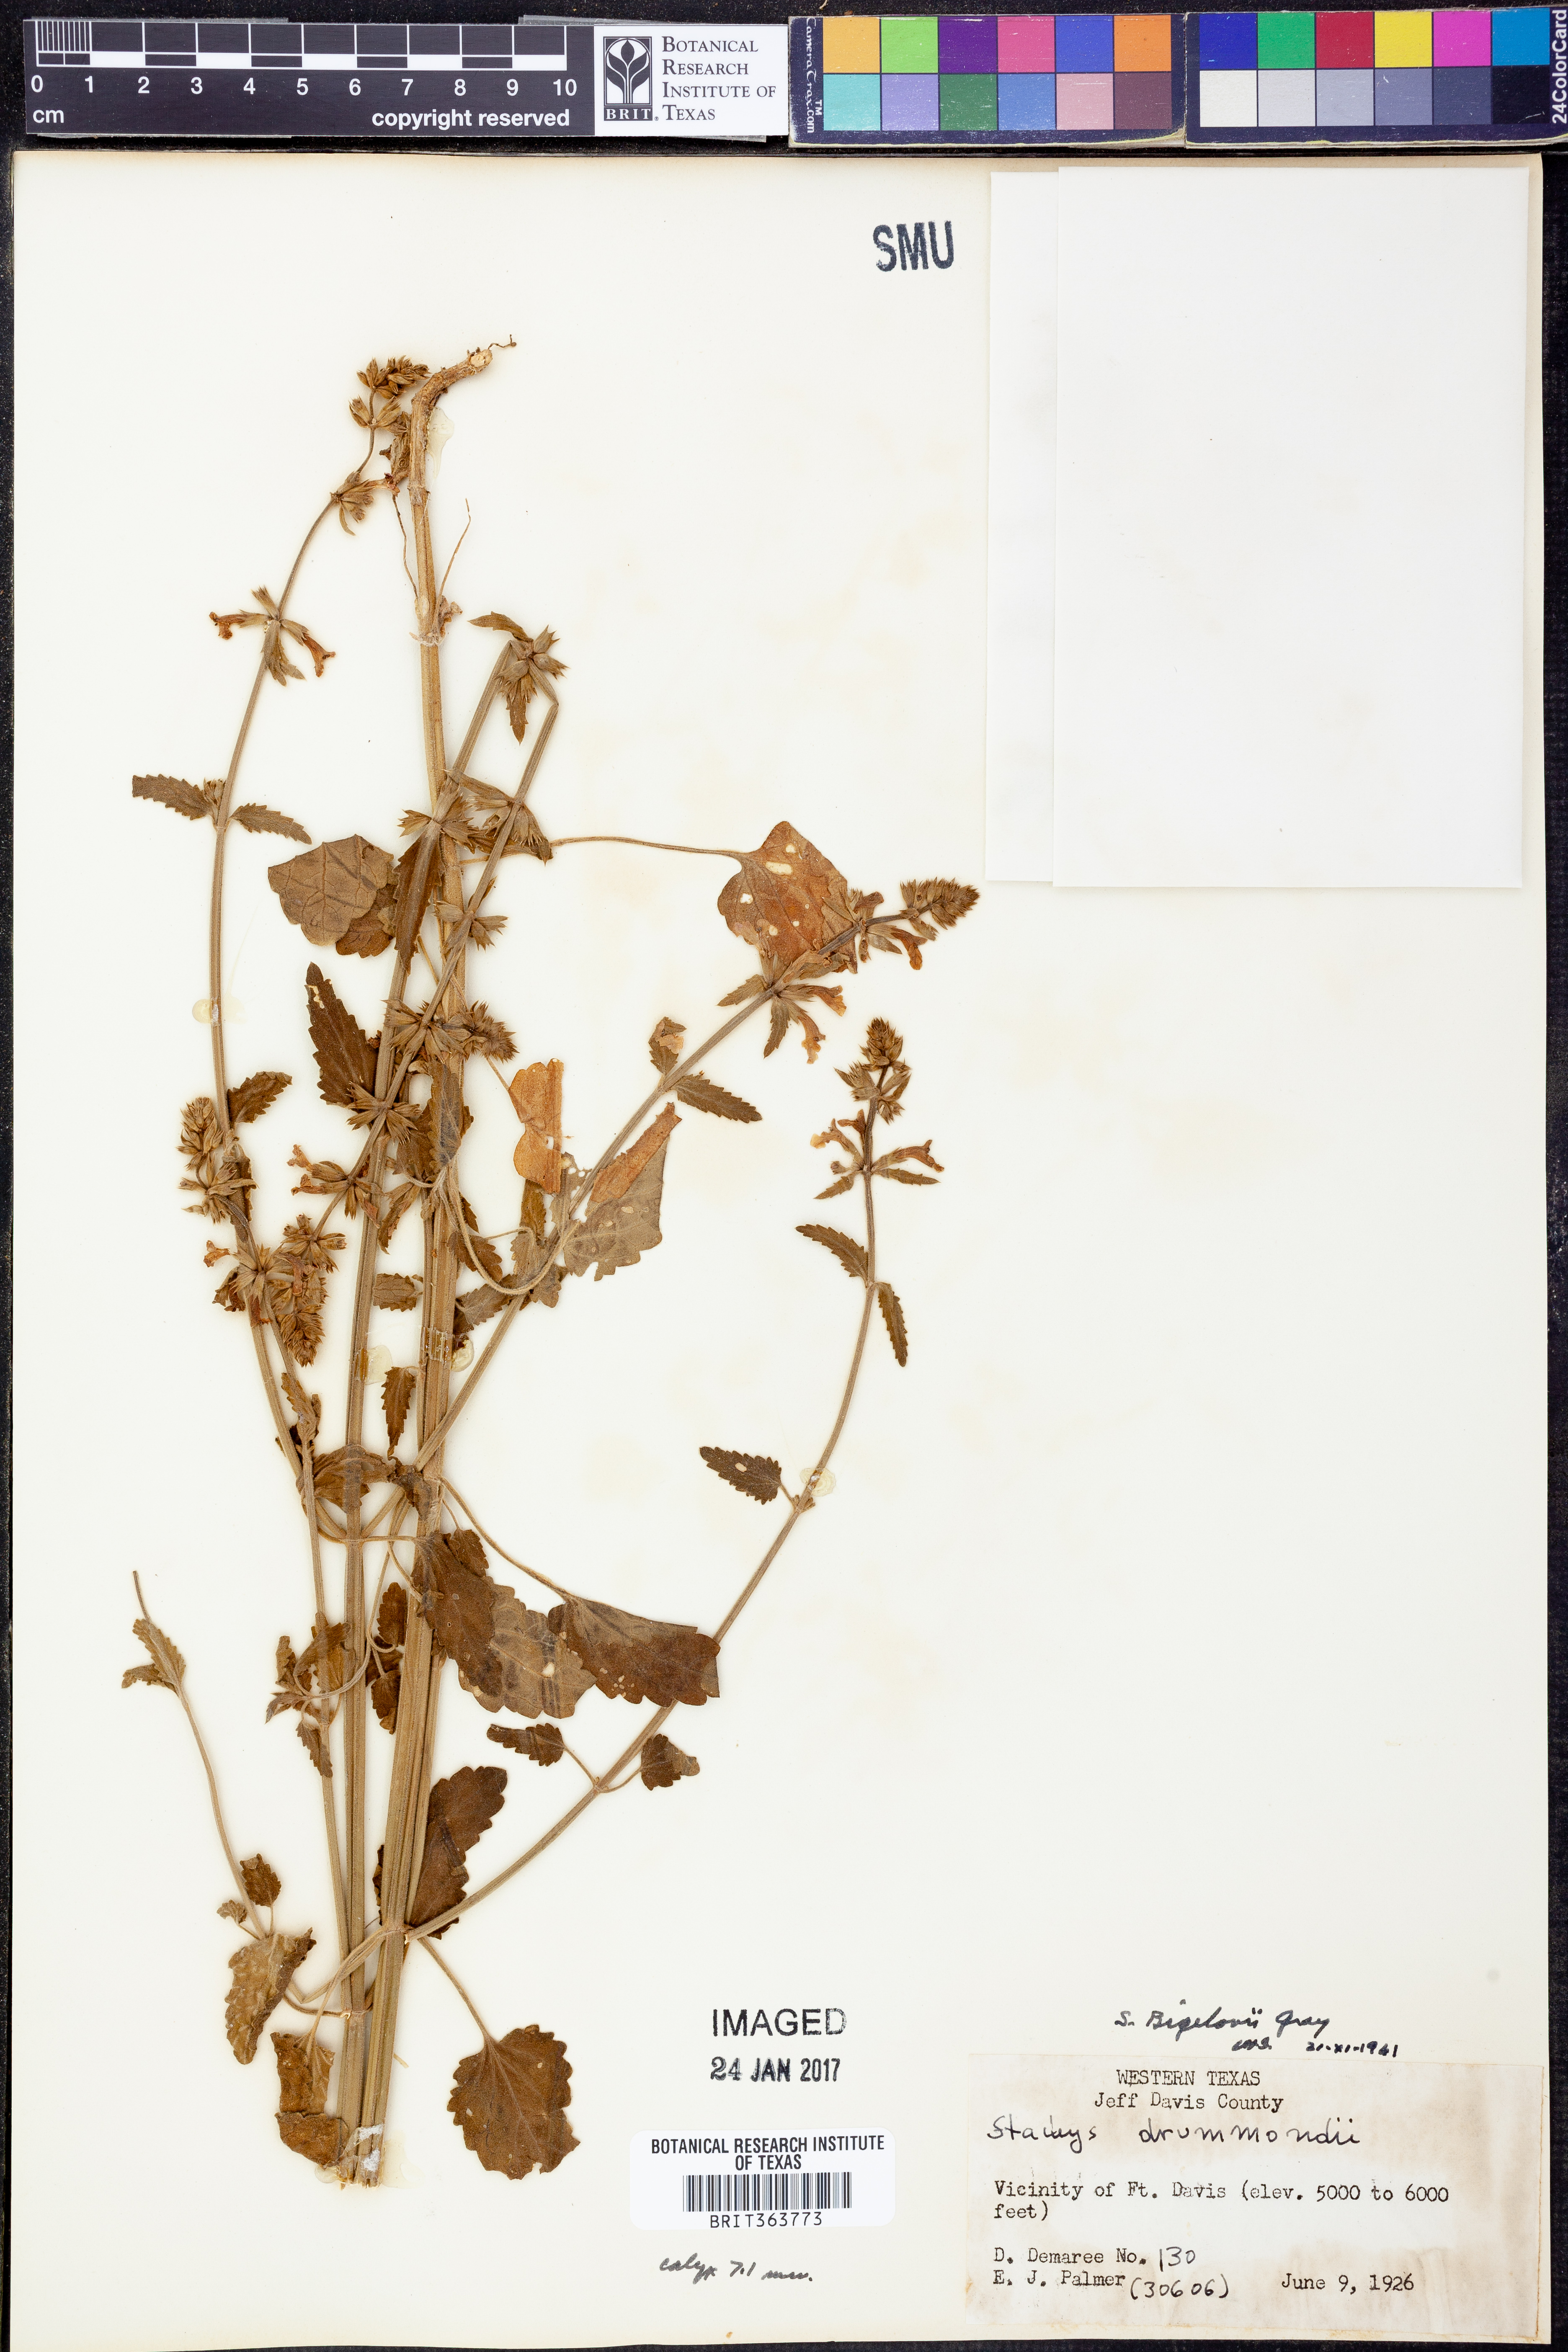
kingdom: Plantae
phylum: Tracheophyta
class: Magnoliopsida
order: Lamiales
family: Lamiaceae
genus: Stachys
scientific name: Stachys bigelovii
